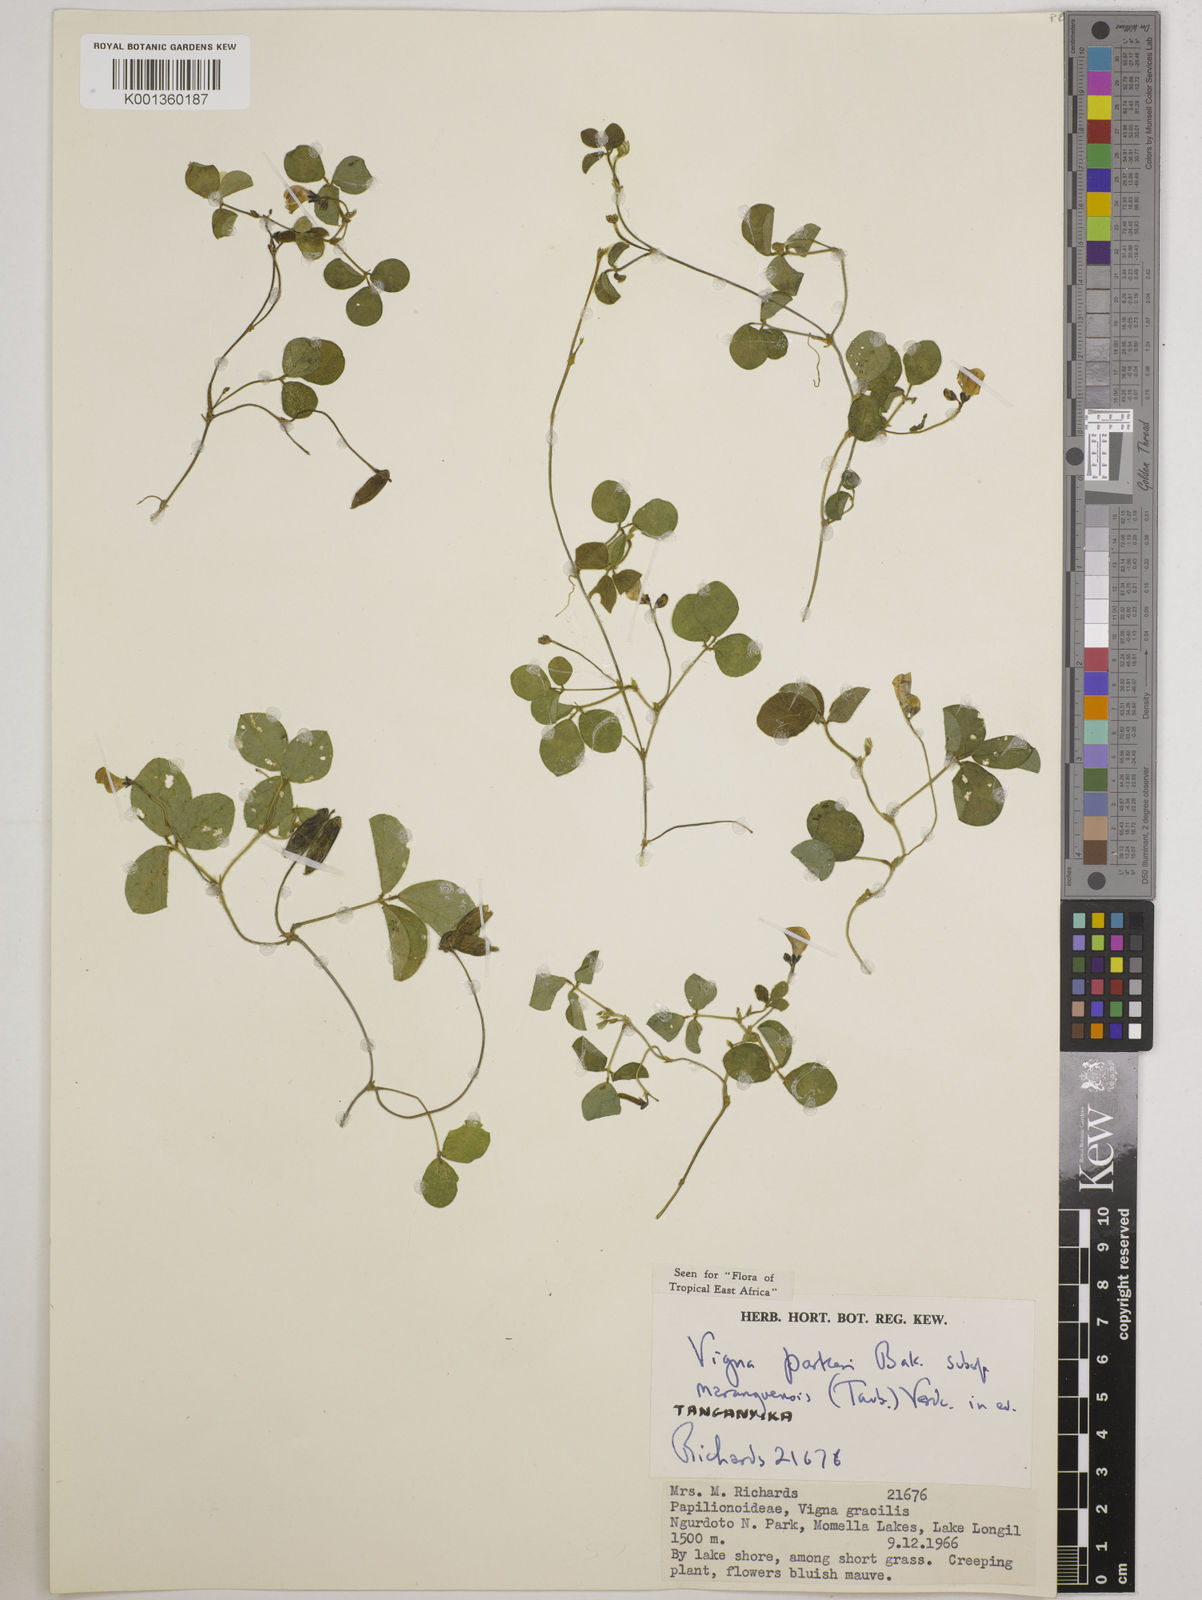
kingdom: Plantae
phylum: Tracheophyta
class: Magnoliopsida
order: Fabales
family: Fabaceae
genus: Vigna
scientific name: Vigna
